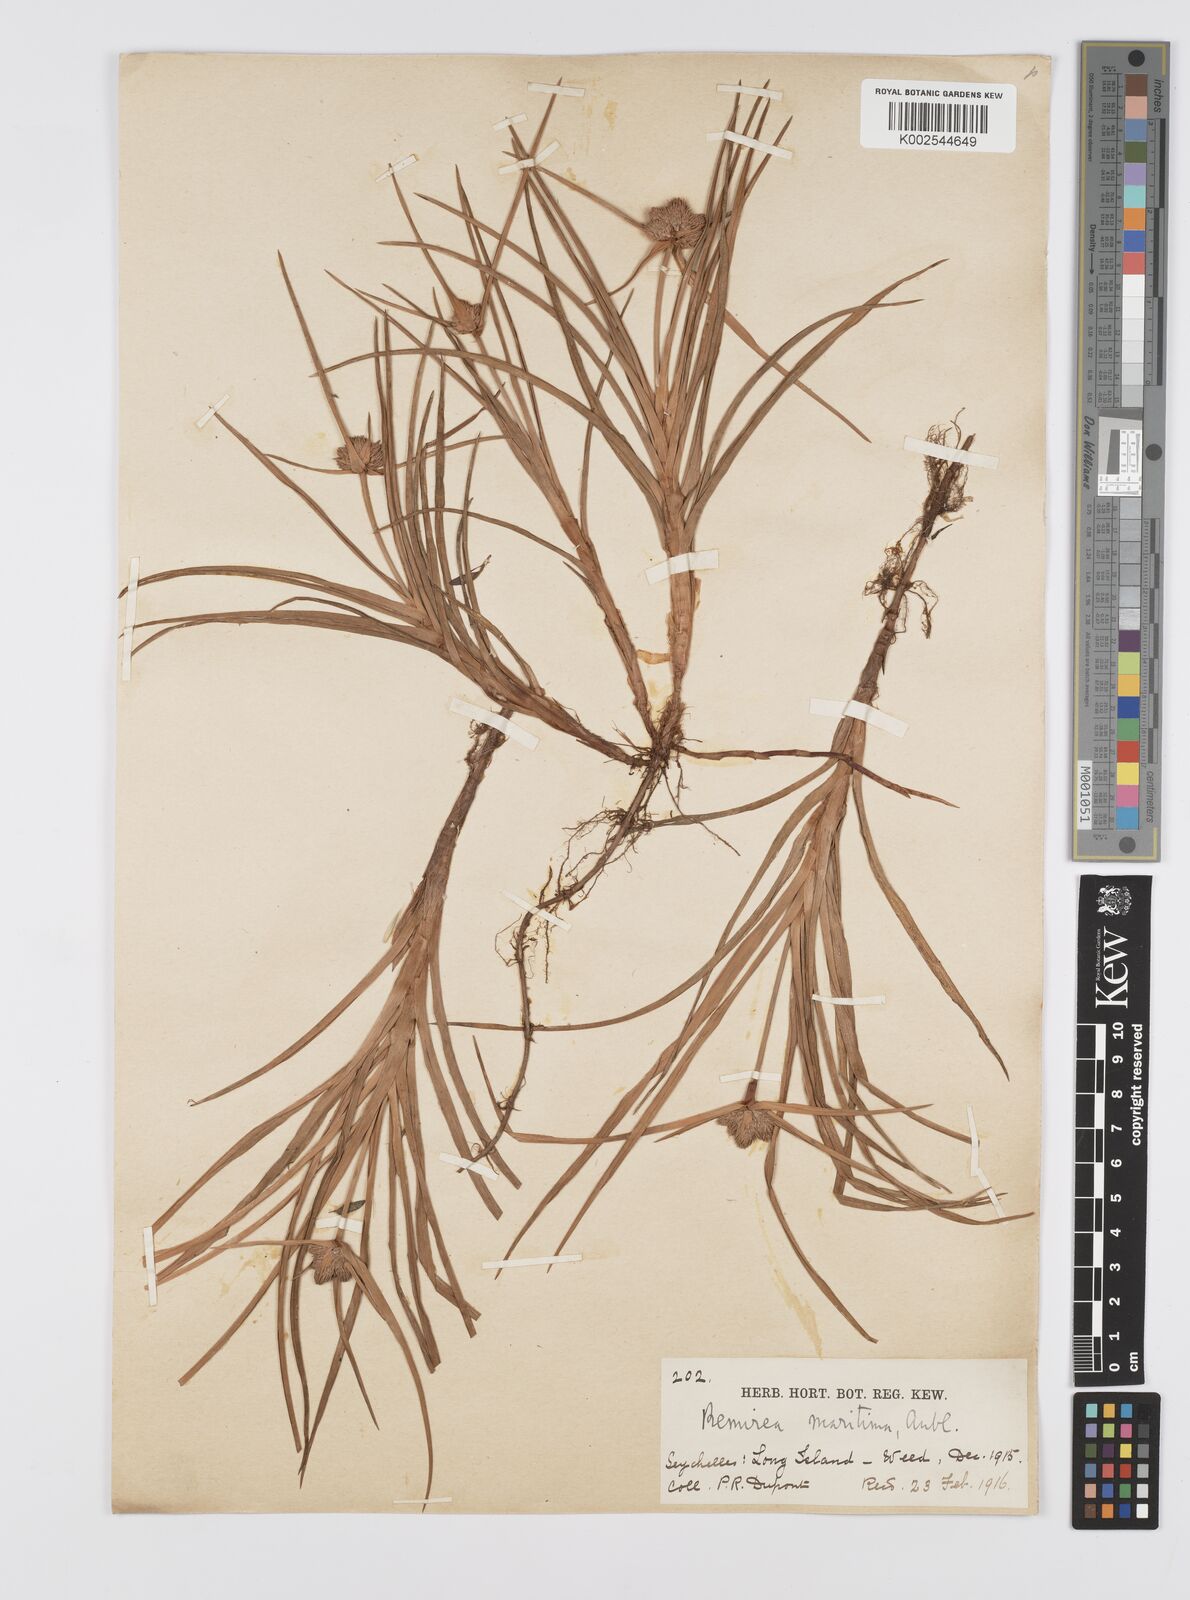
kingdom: Plantae
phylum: Tracheophyta
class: Liliopsida
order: Poales
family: Cyperaceae
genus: Cyperus
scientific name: Cyperus
